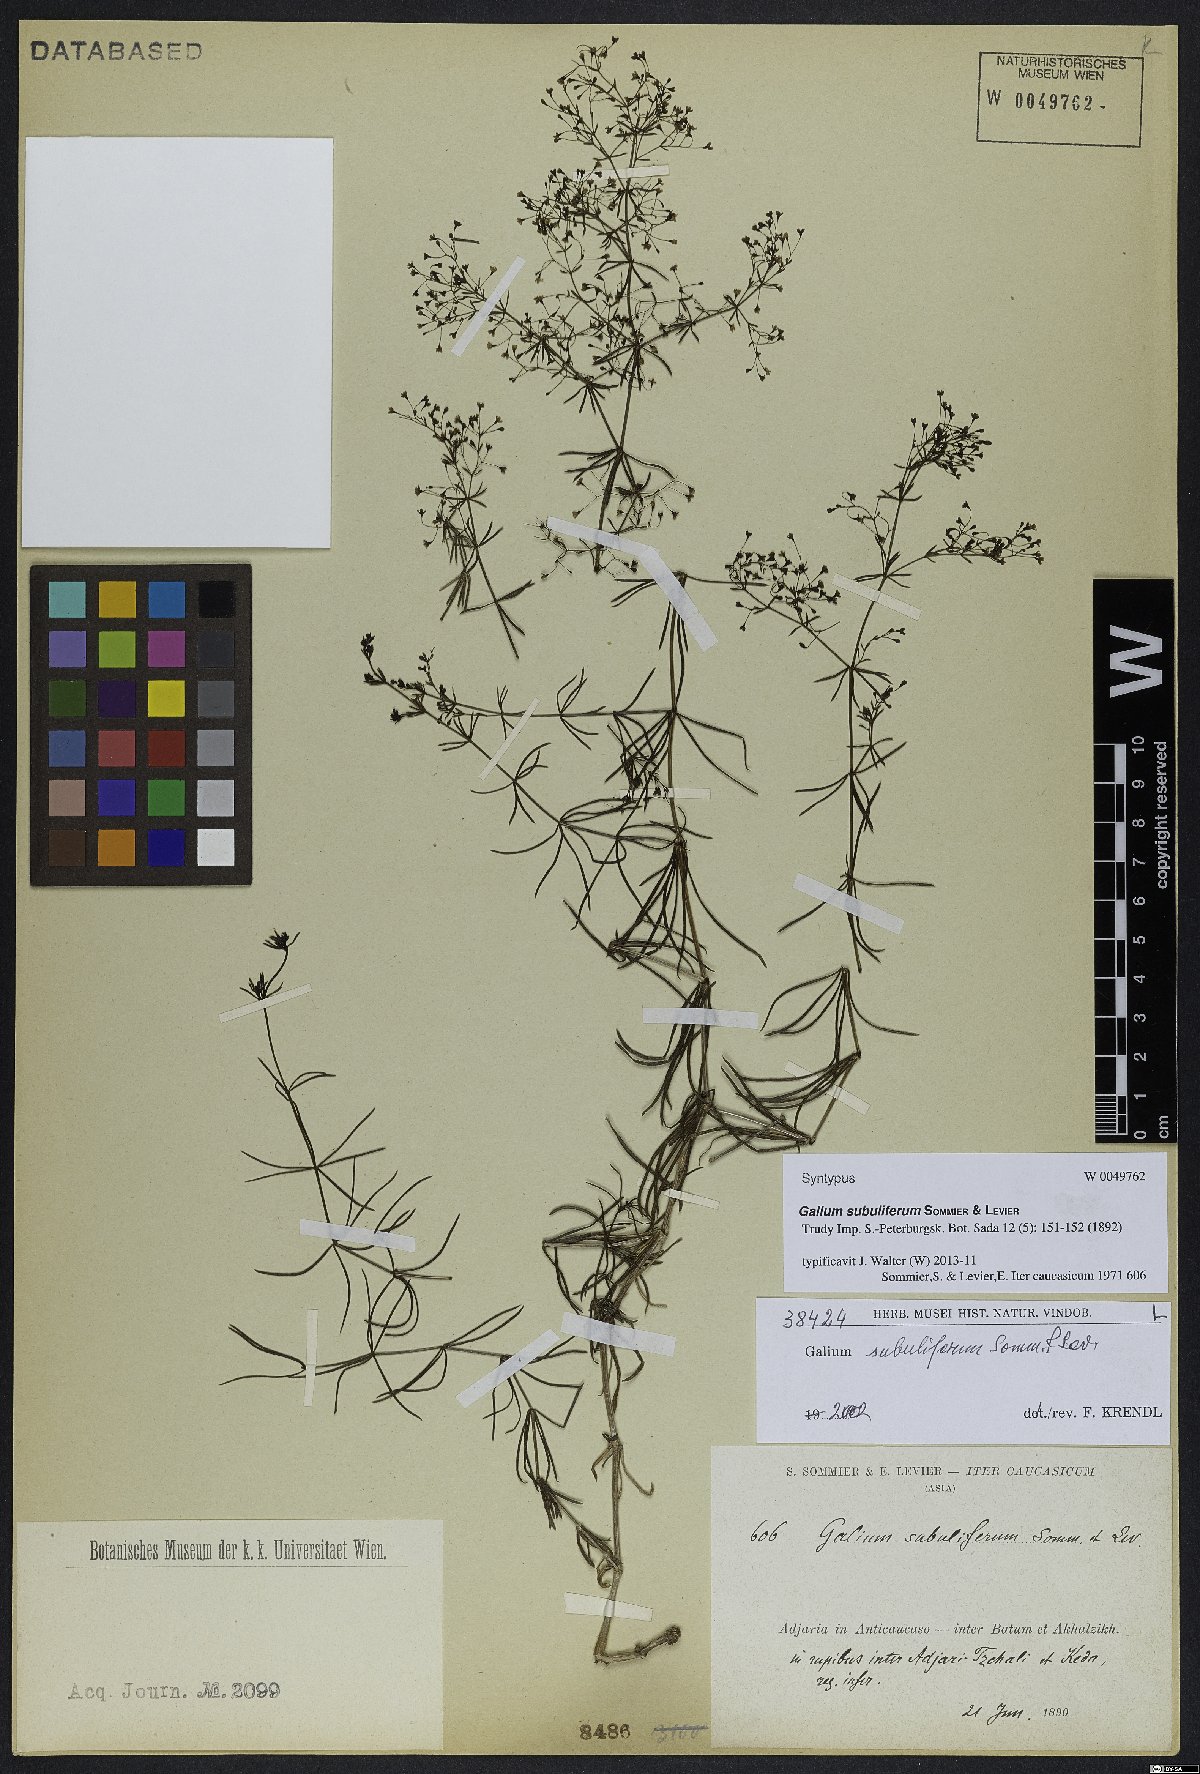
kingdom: Plantae
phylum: Tracheophyta
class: Magnoliopsida
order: Gentianales
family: Rubiaceae
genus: Galium
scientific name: Galium subuliferum
